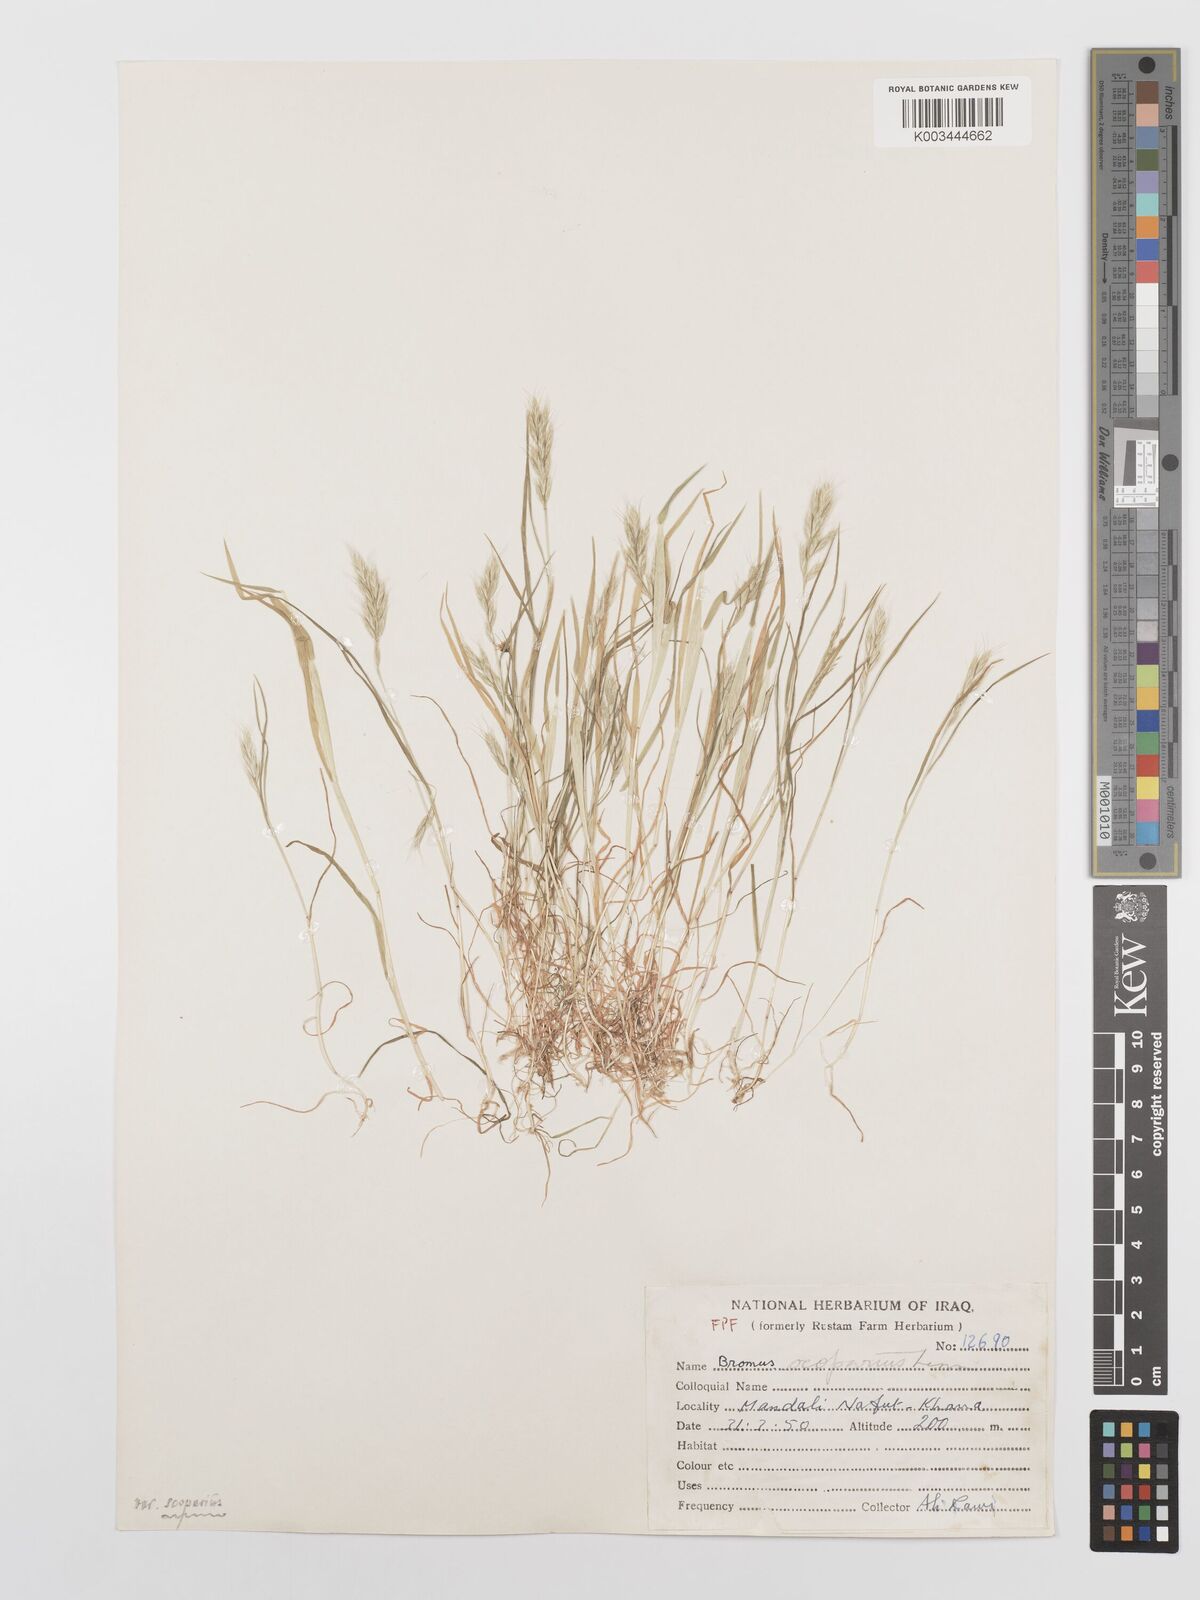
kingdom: Plantae
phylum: Tracheophyta
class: Liliopsida
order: Poales
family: Poaceae
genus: Bromus
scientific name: Bromus scoparius
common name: Broom brome
